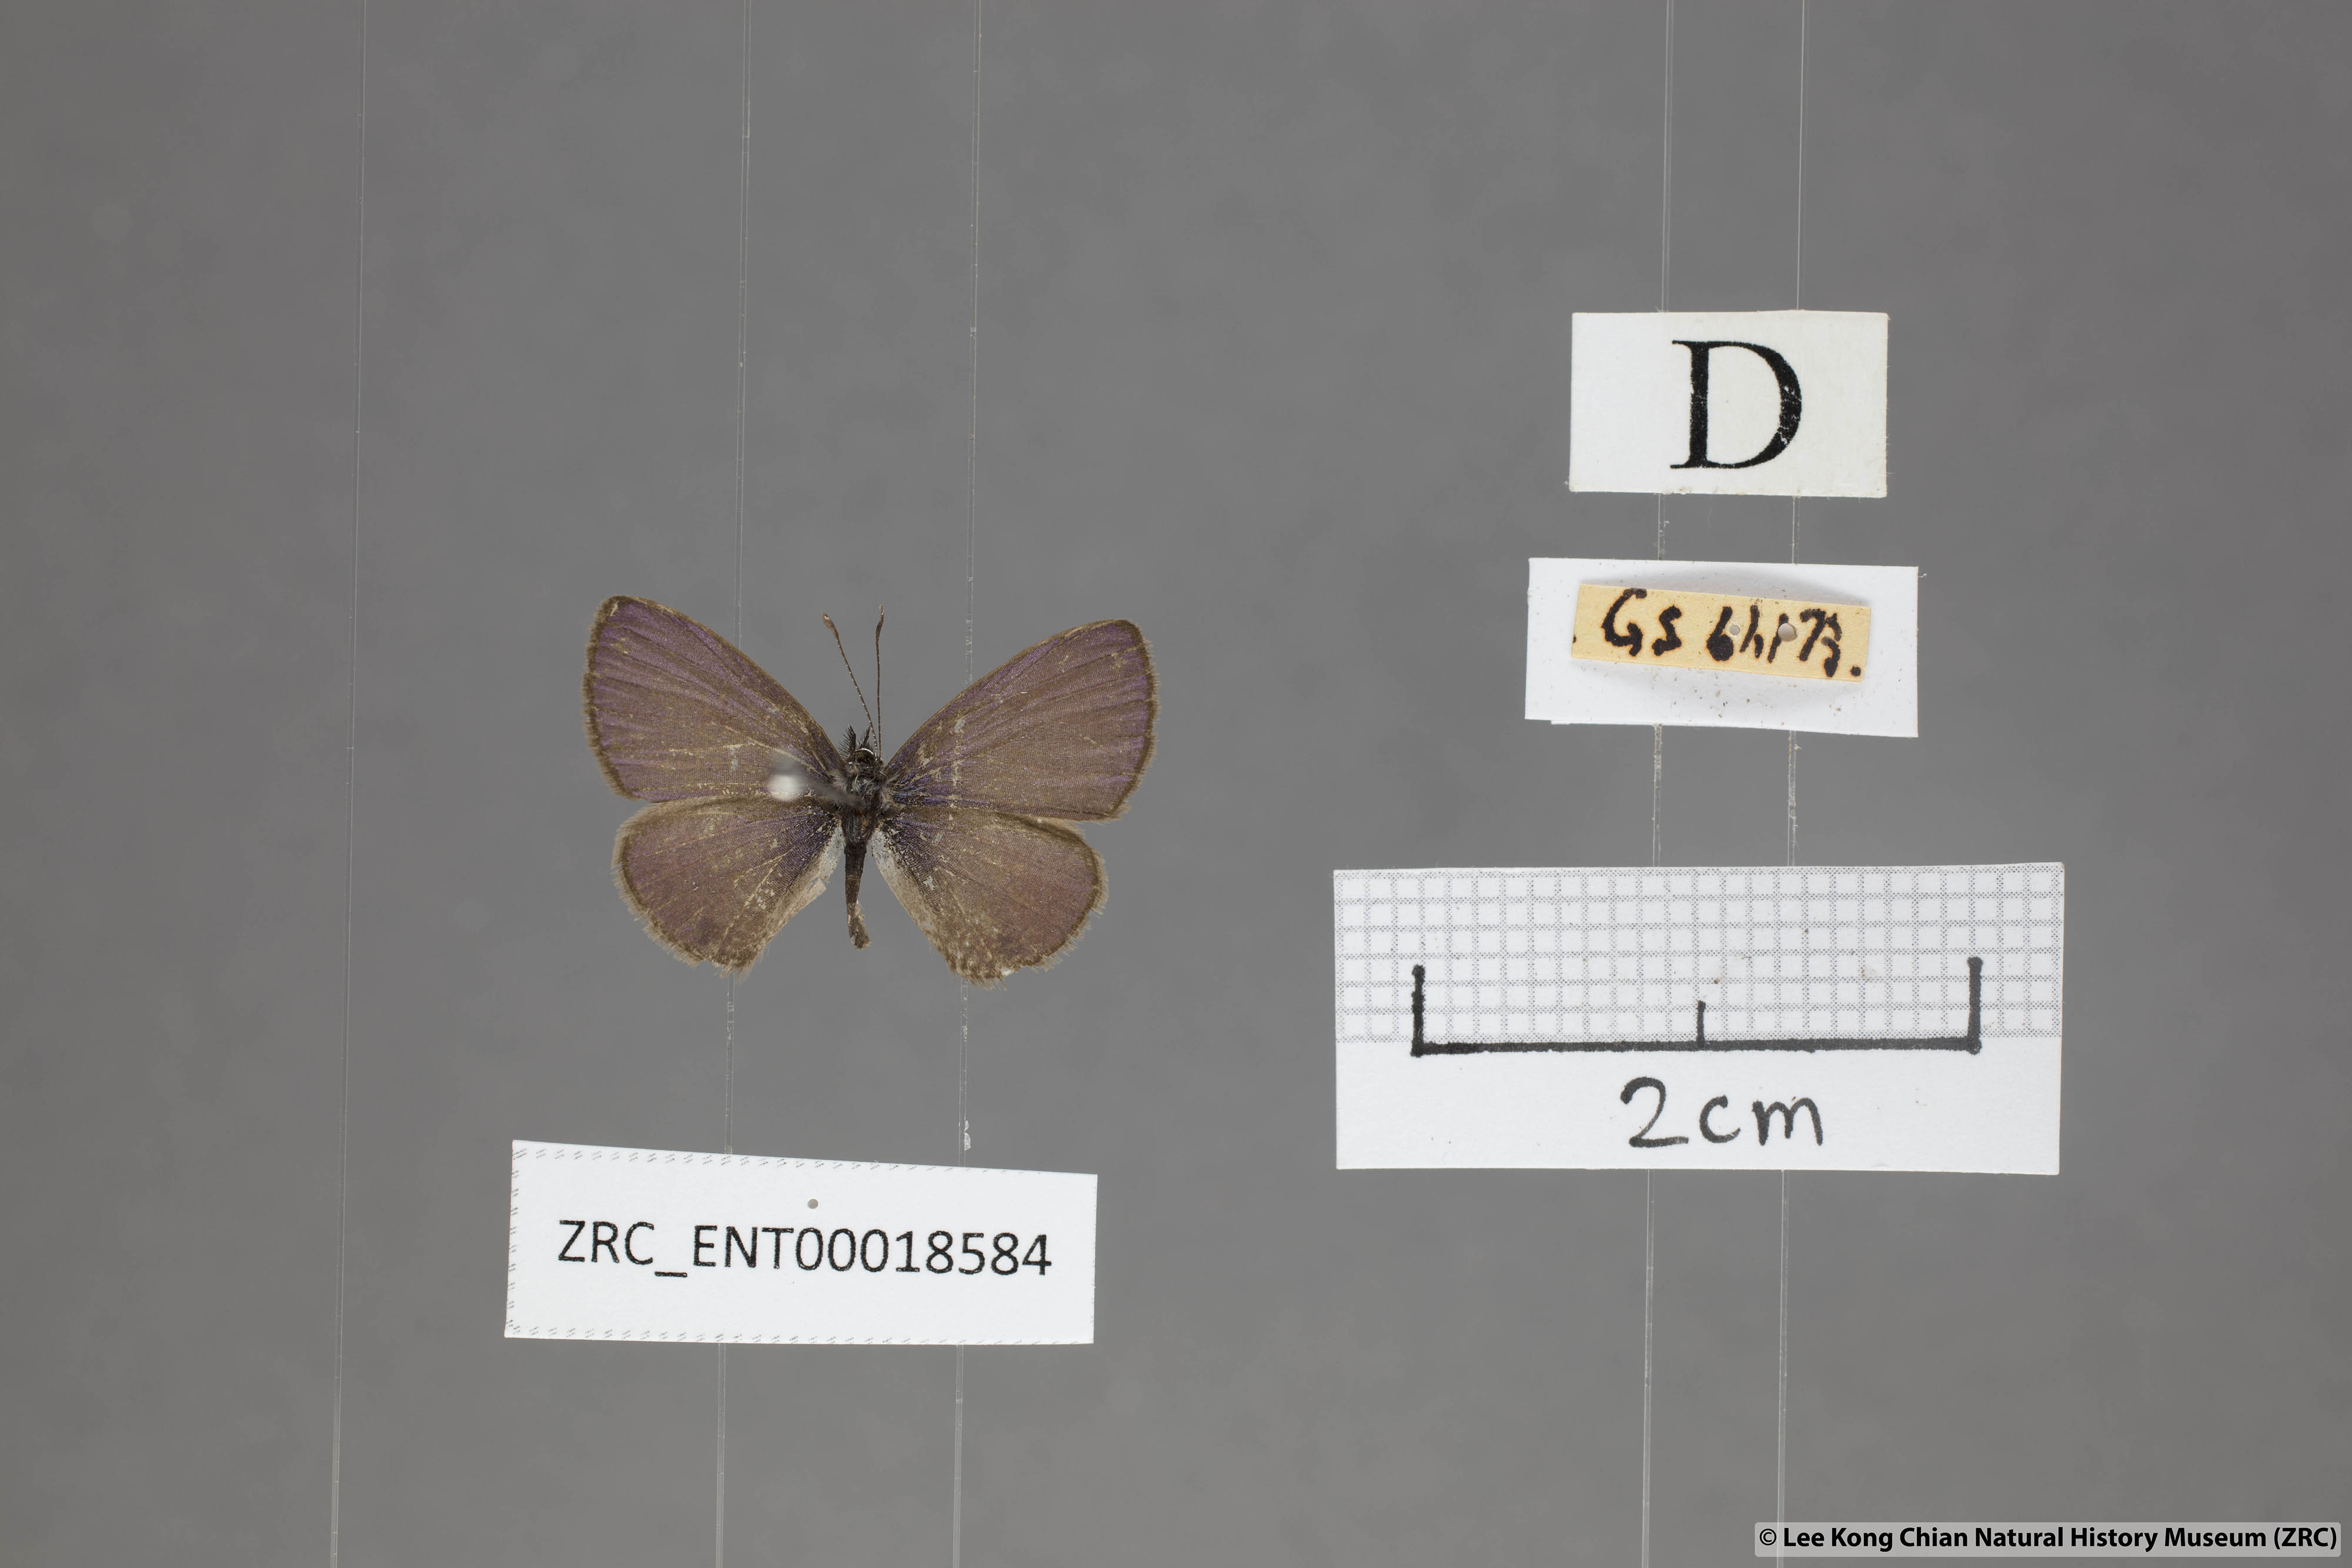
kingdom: Animalia
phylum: Arthropoda
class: Insecta
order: Lepidoptera
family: Lycaenidae
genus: Prosotas
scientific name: Prosotas dubiosa
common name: Tailless lineblue
